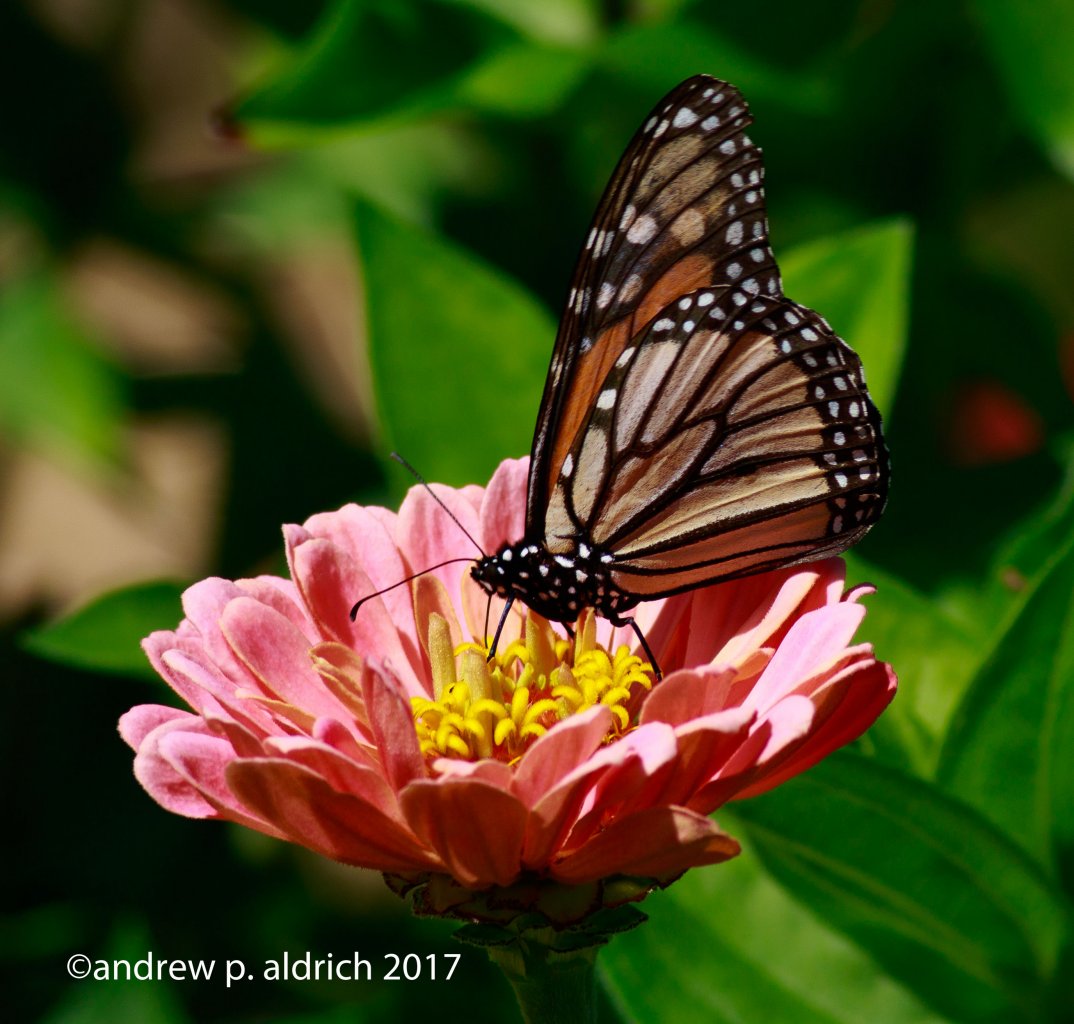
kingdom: Animalia
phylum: Arthropoda
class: Insecta
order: Lepidoptera
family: Nymphalidae
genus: Danaus
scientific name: Danaus plexippus
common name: Monarch
